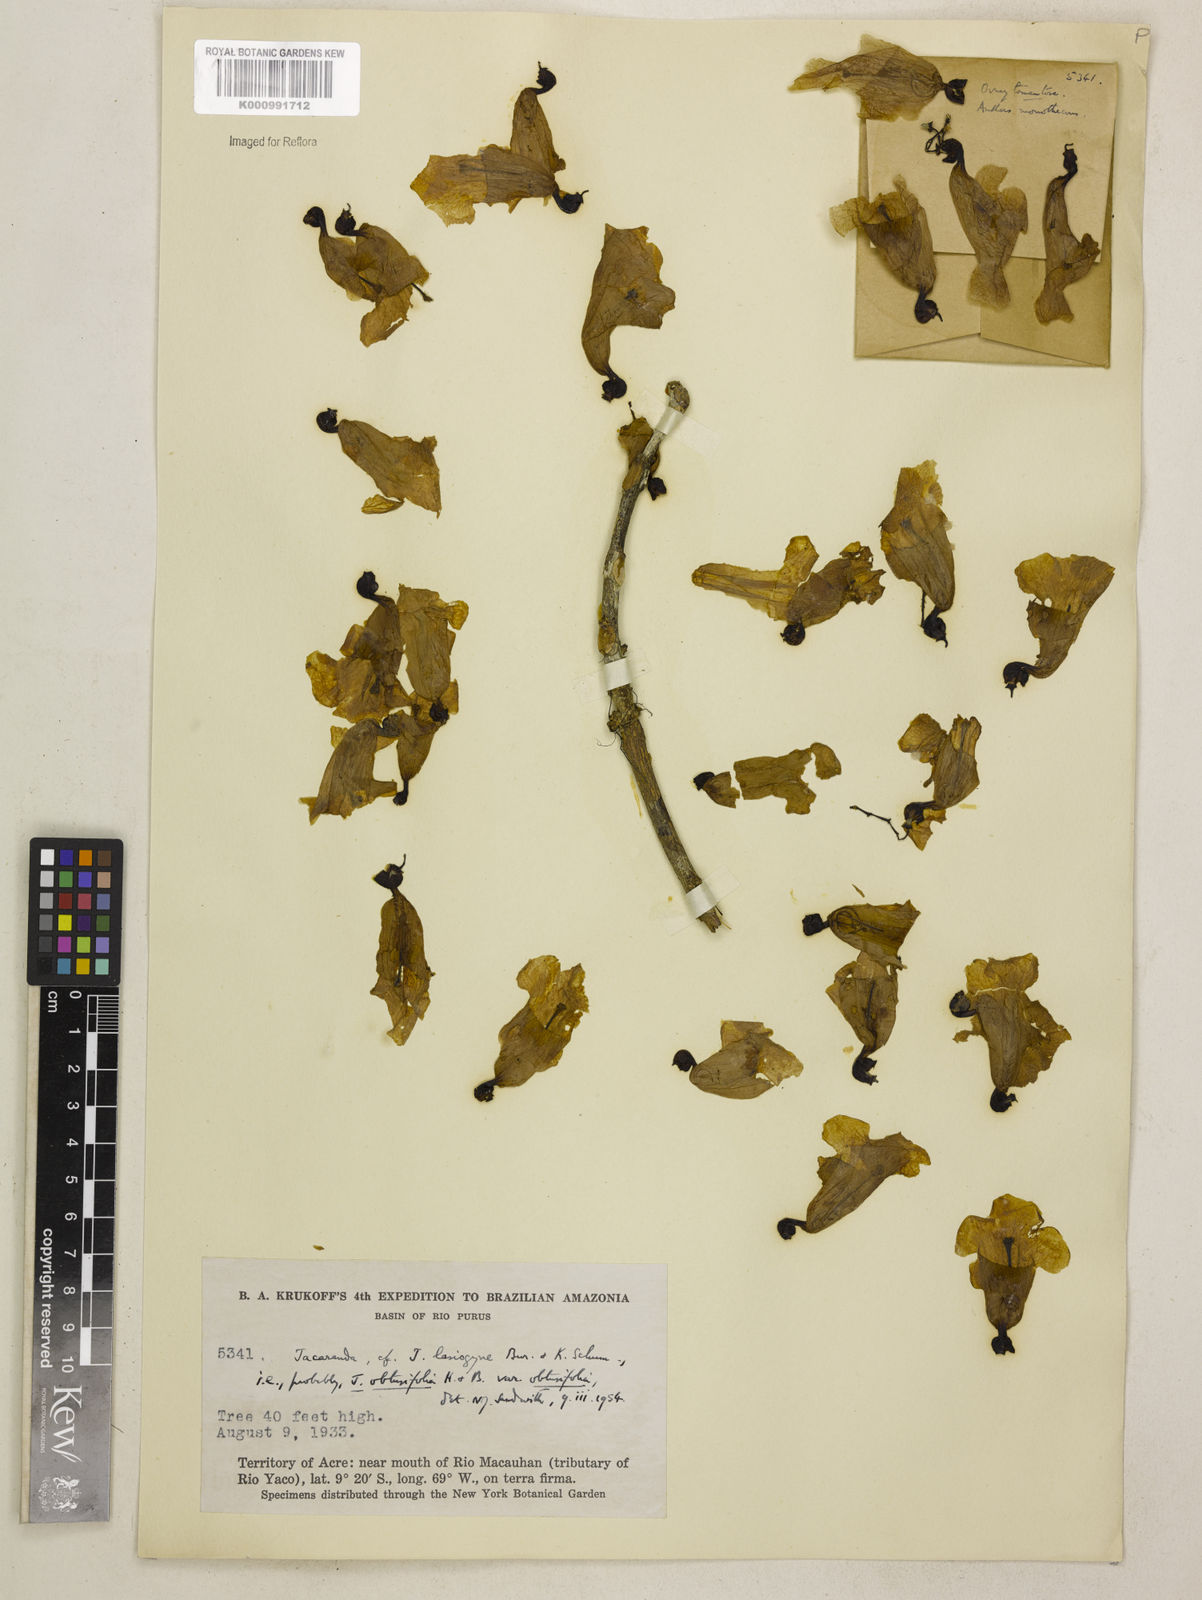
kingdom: Plantae
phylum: Tracheophyta
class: Magnoliopsida
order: Lamiales
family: Bignoniaceae
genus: Jacaranda
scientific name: Jacaranda obtusifolia
